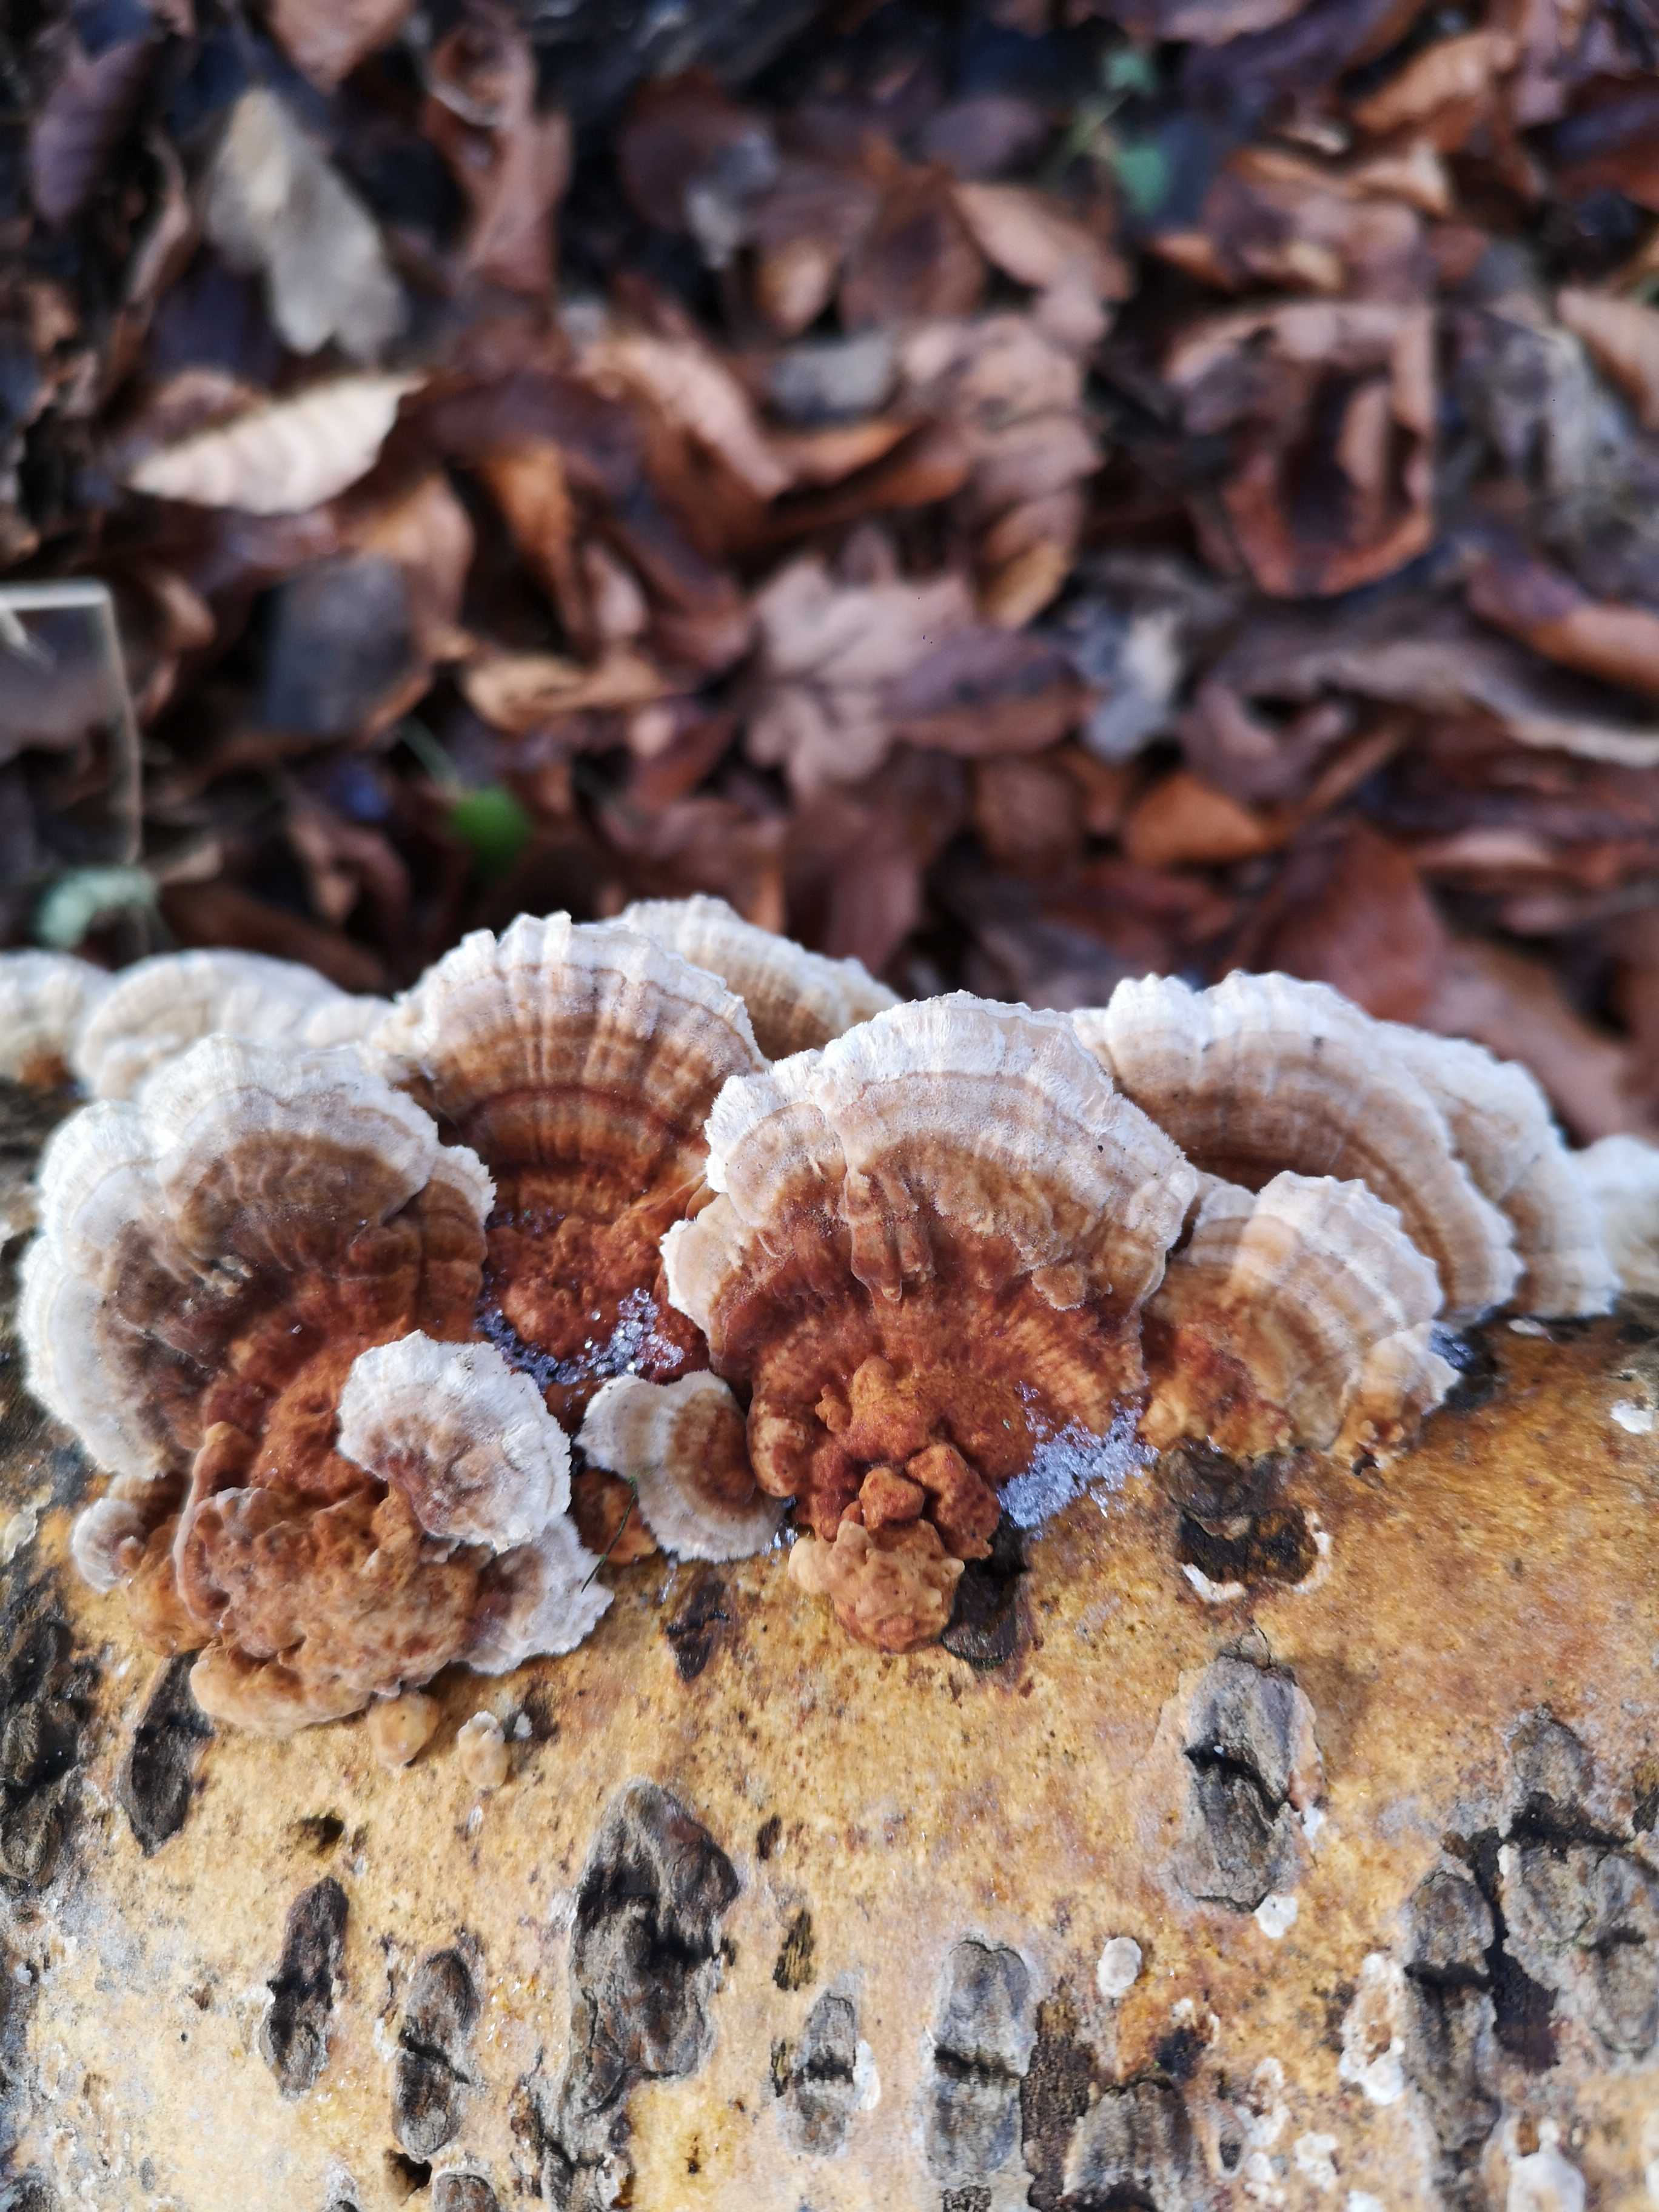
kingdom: Fungi
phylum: Basidiomycota
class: Agaricomycetes
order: Polyporales
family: Polyporaceae
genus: Trametes
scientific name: Trametes ochracea
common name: bæltet læderporesvamp
